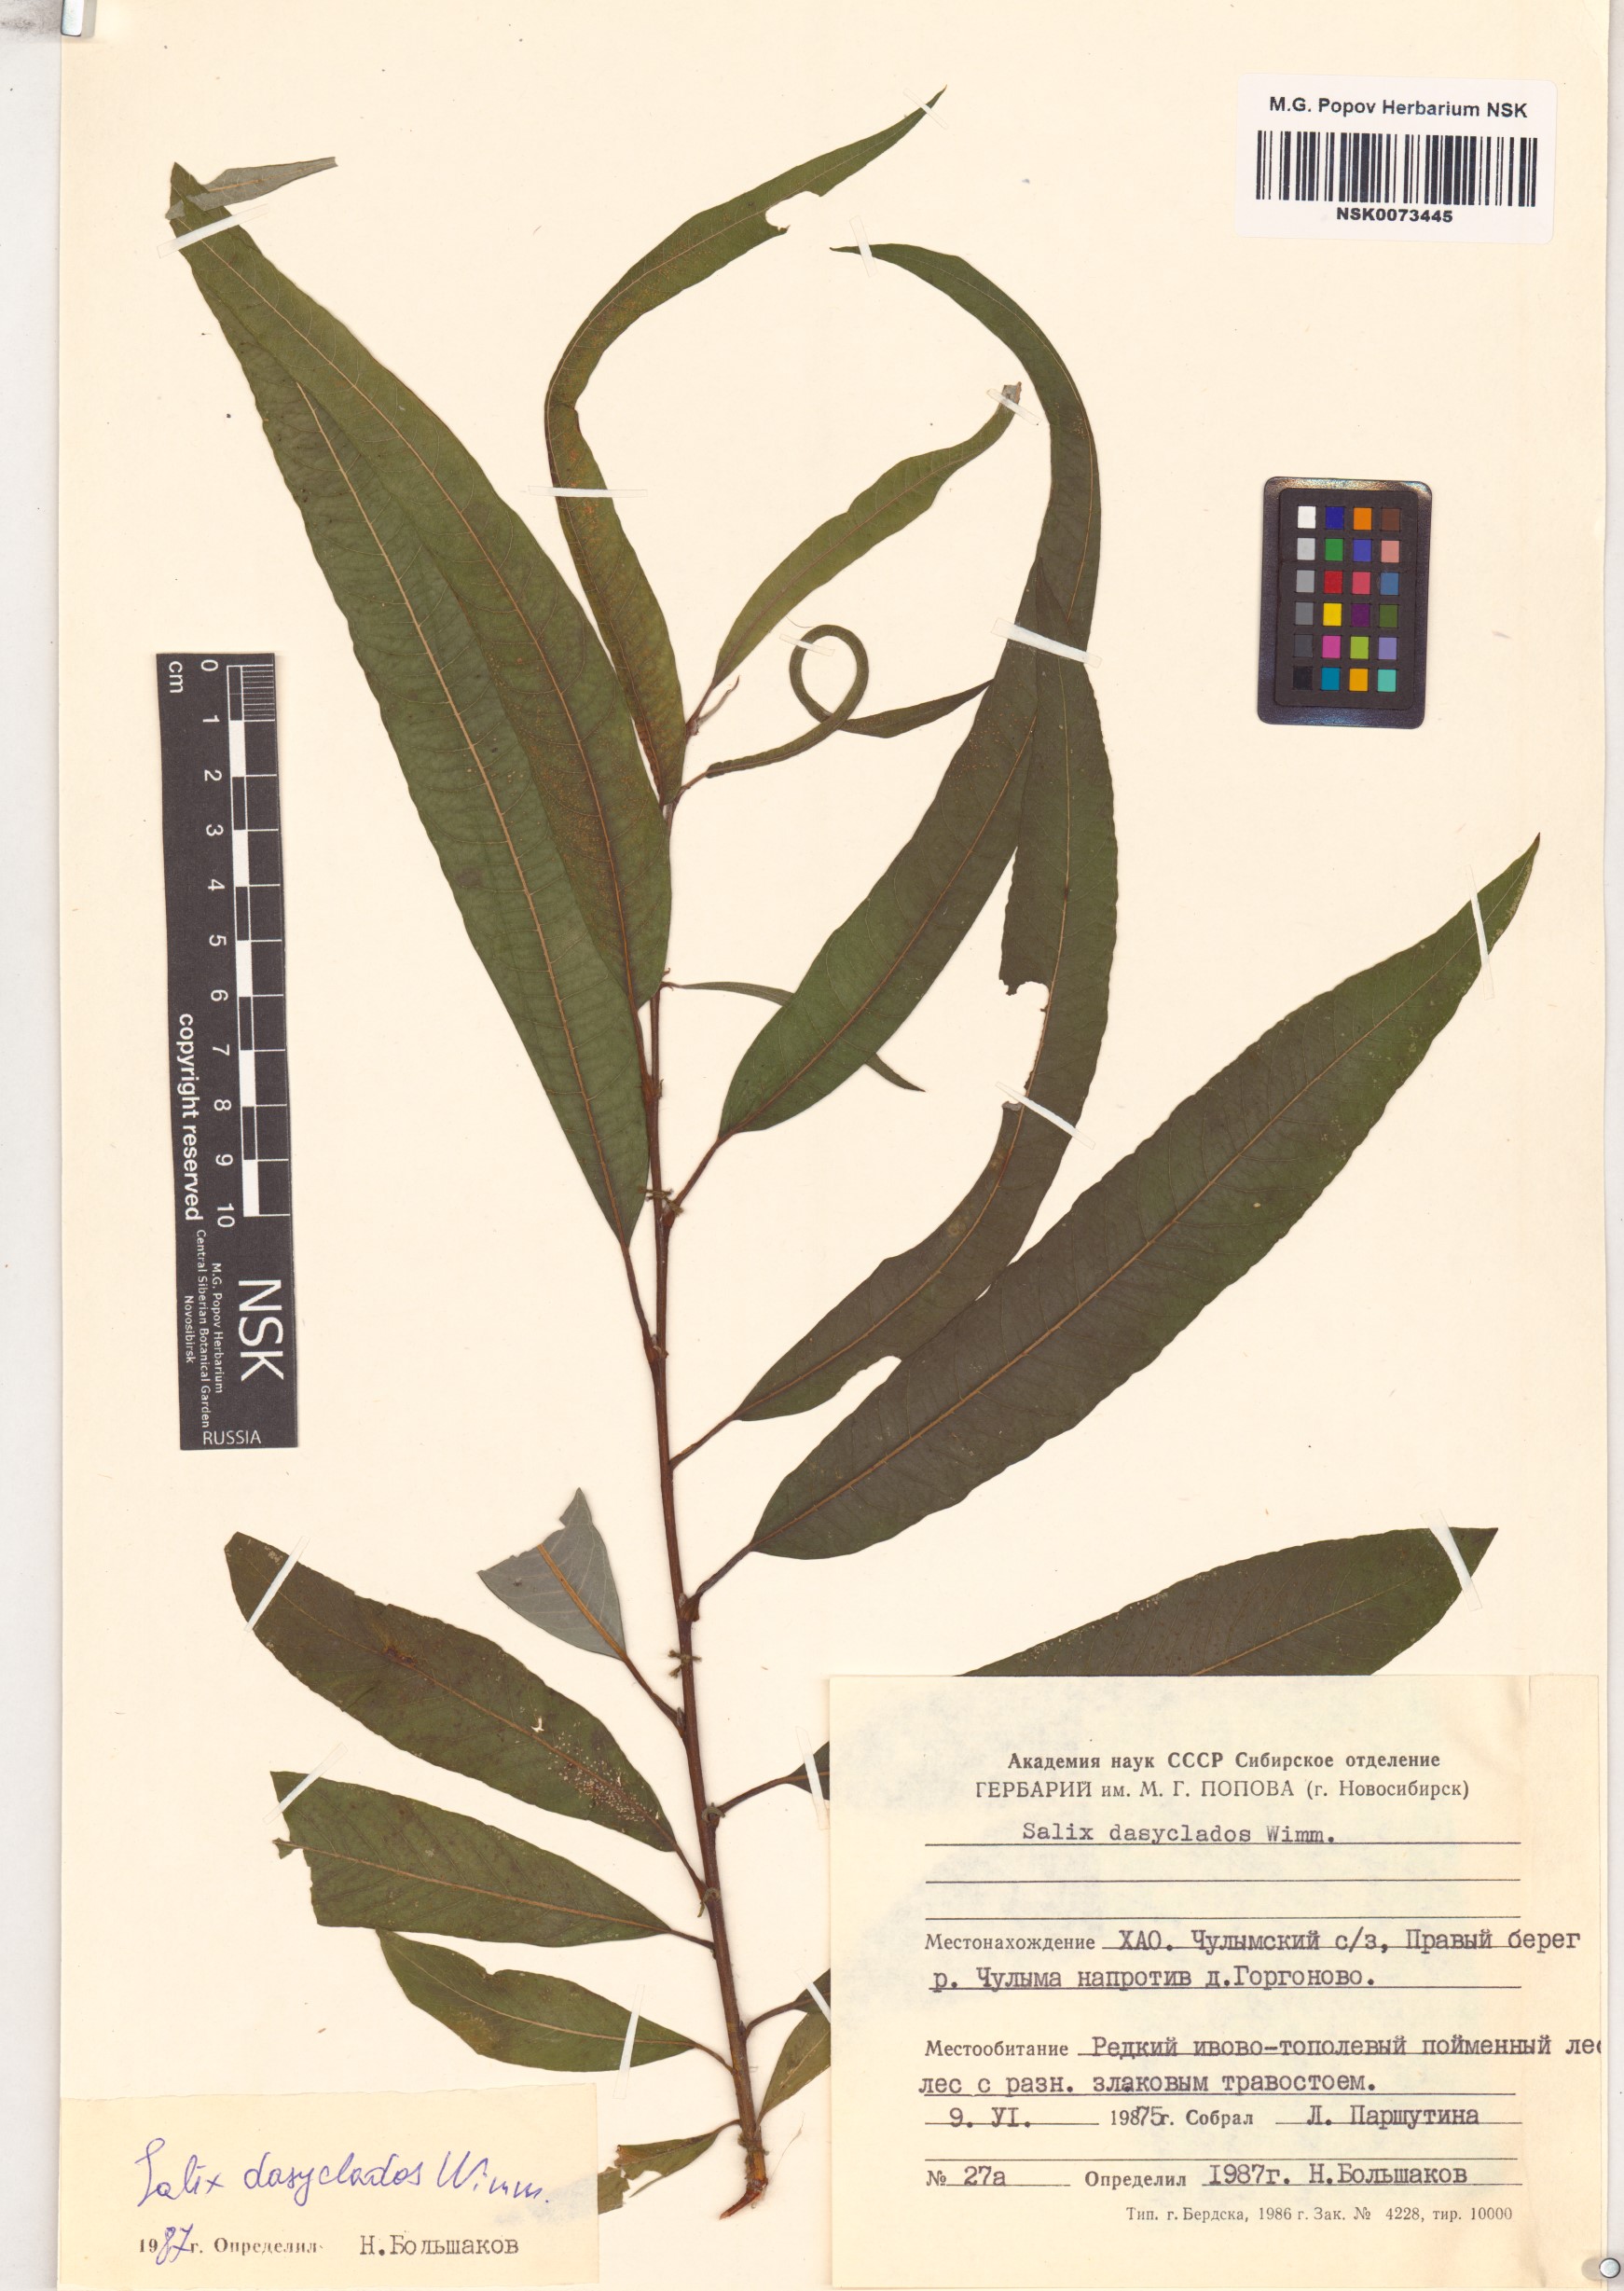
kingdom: Plantae
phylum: Tracheophyta
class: Magnoliopsida
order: Malpighiales
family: Salicaceae
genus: Salix
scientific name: Salix gmelinii
